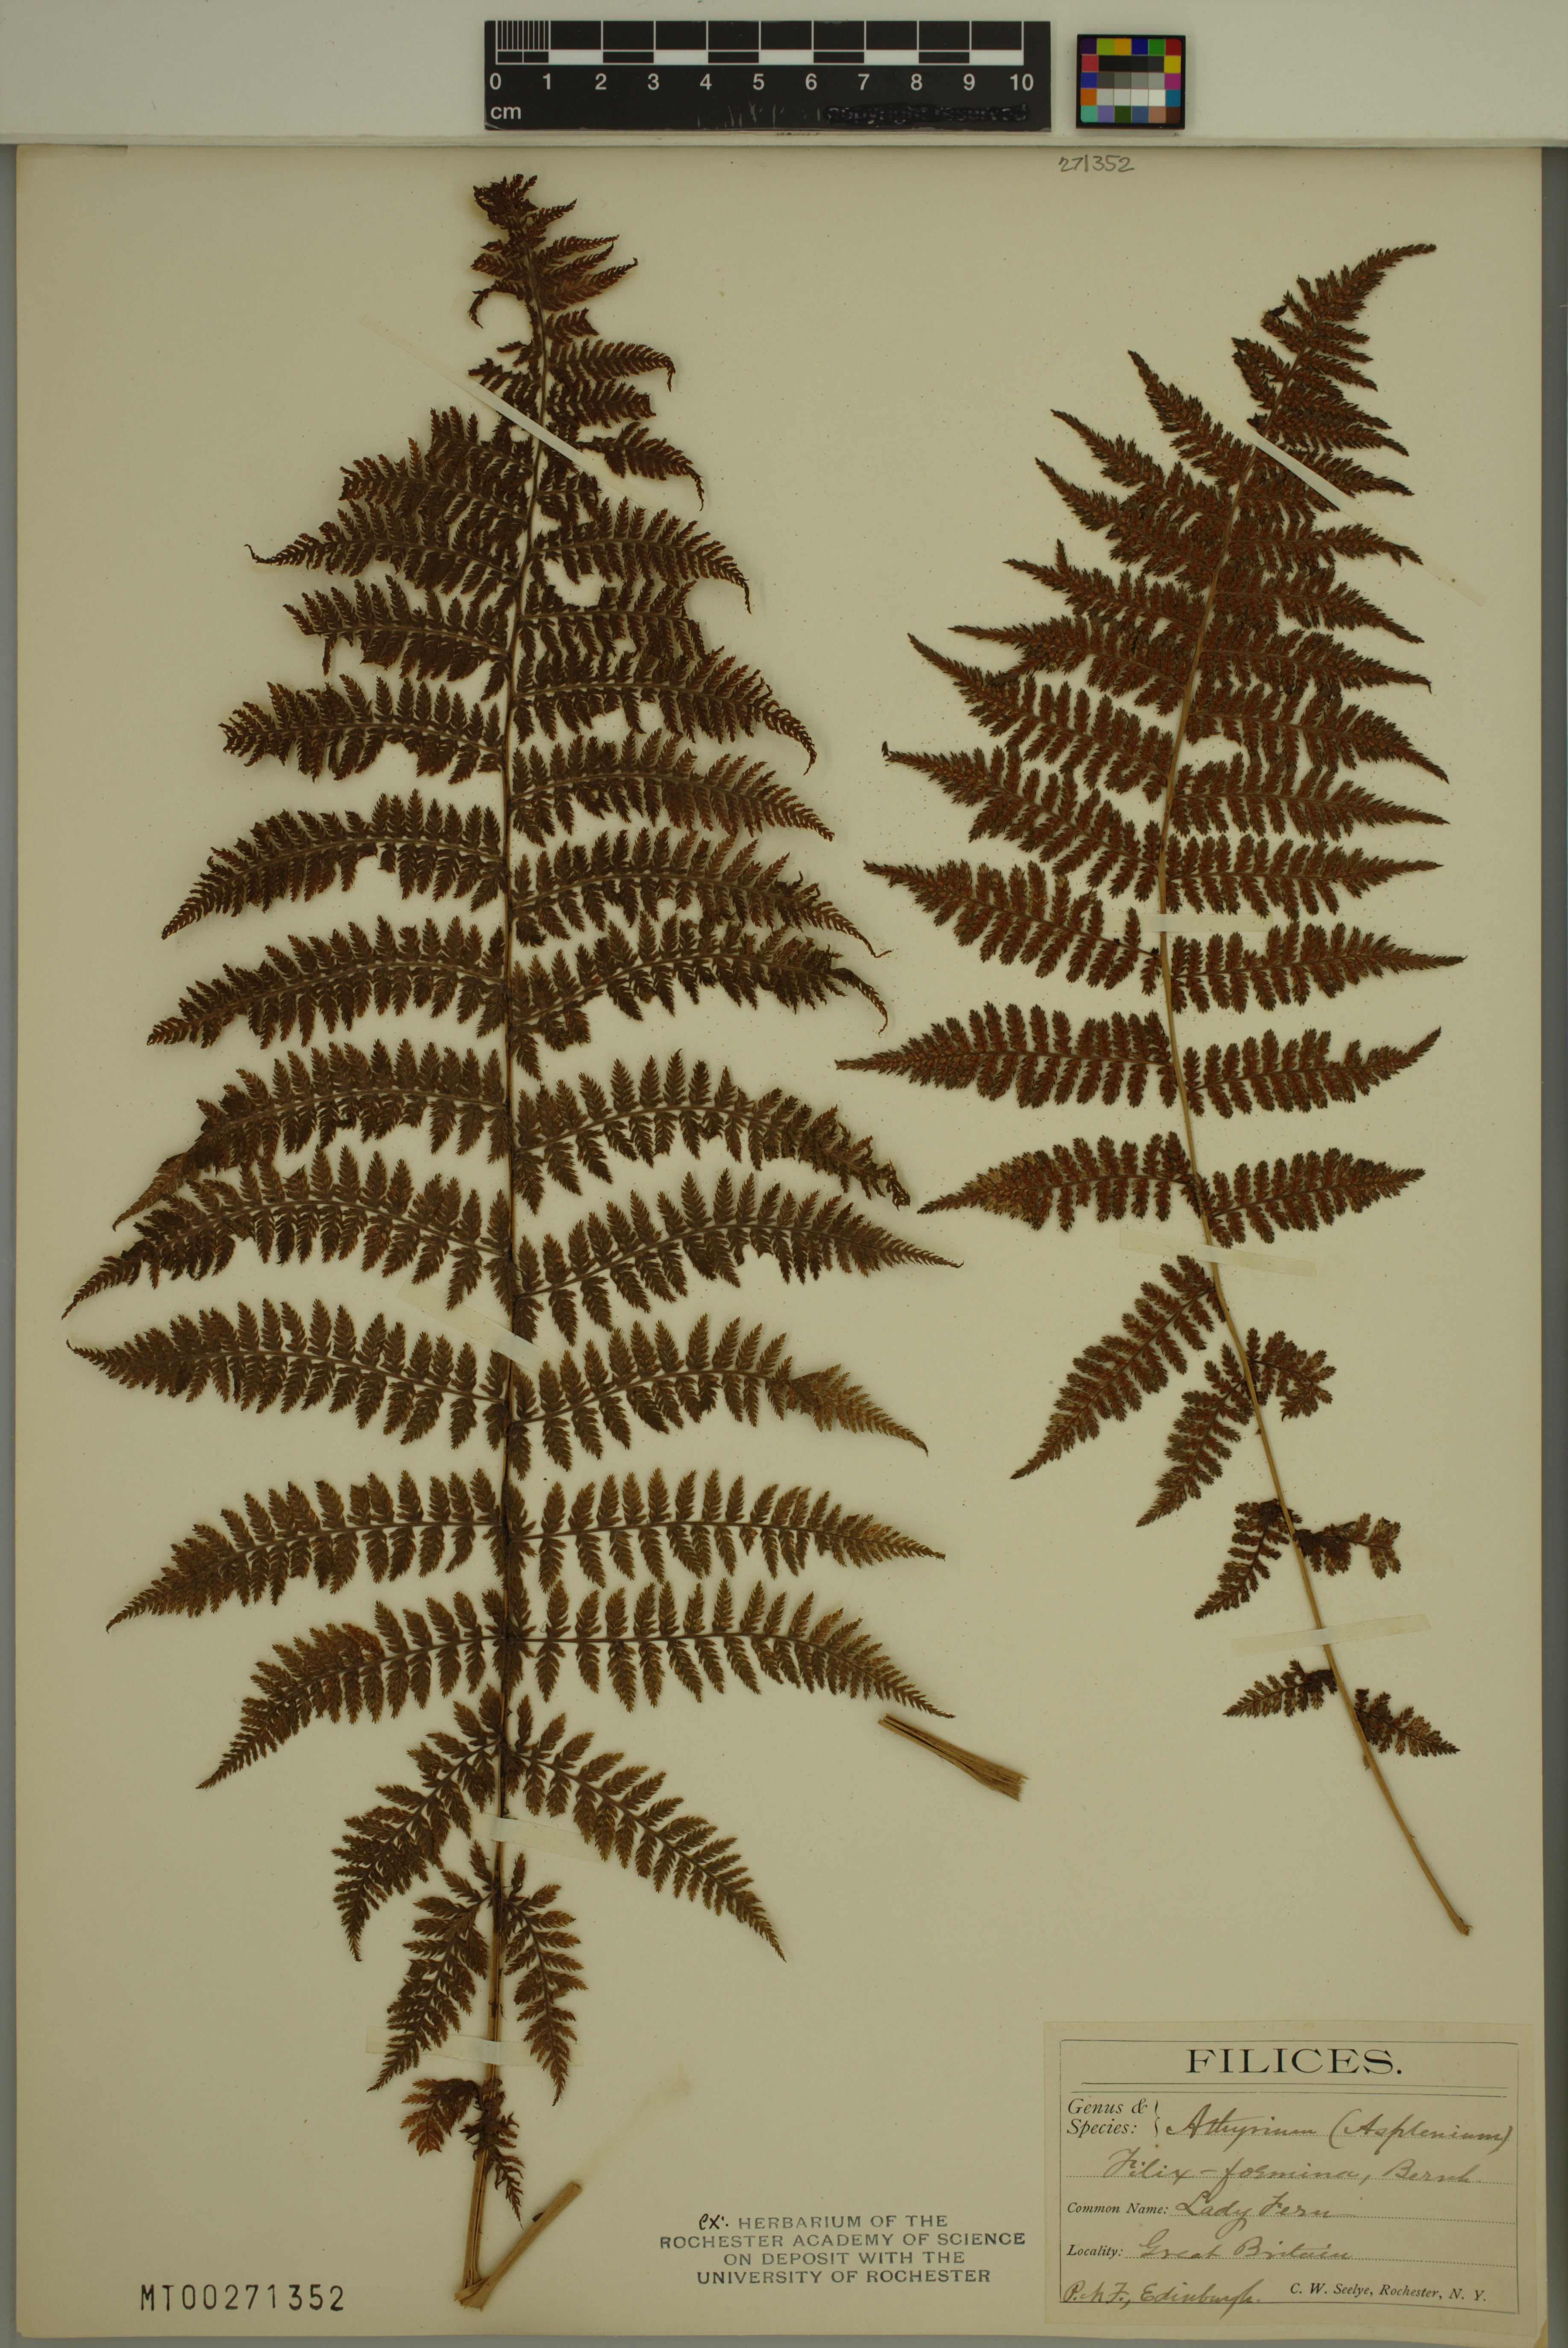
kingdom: Plantae
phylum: Tracheophyta
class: Polypodiopsida
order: Polypodiales
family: Athyriaceae
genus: Athyrium
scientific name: Athyrium filix-femina
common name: Lady fern
